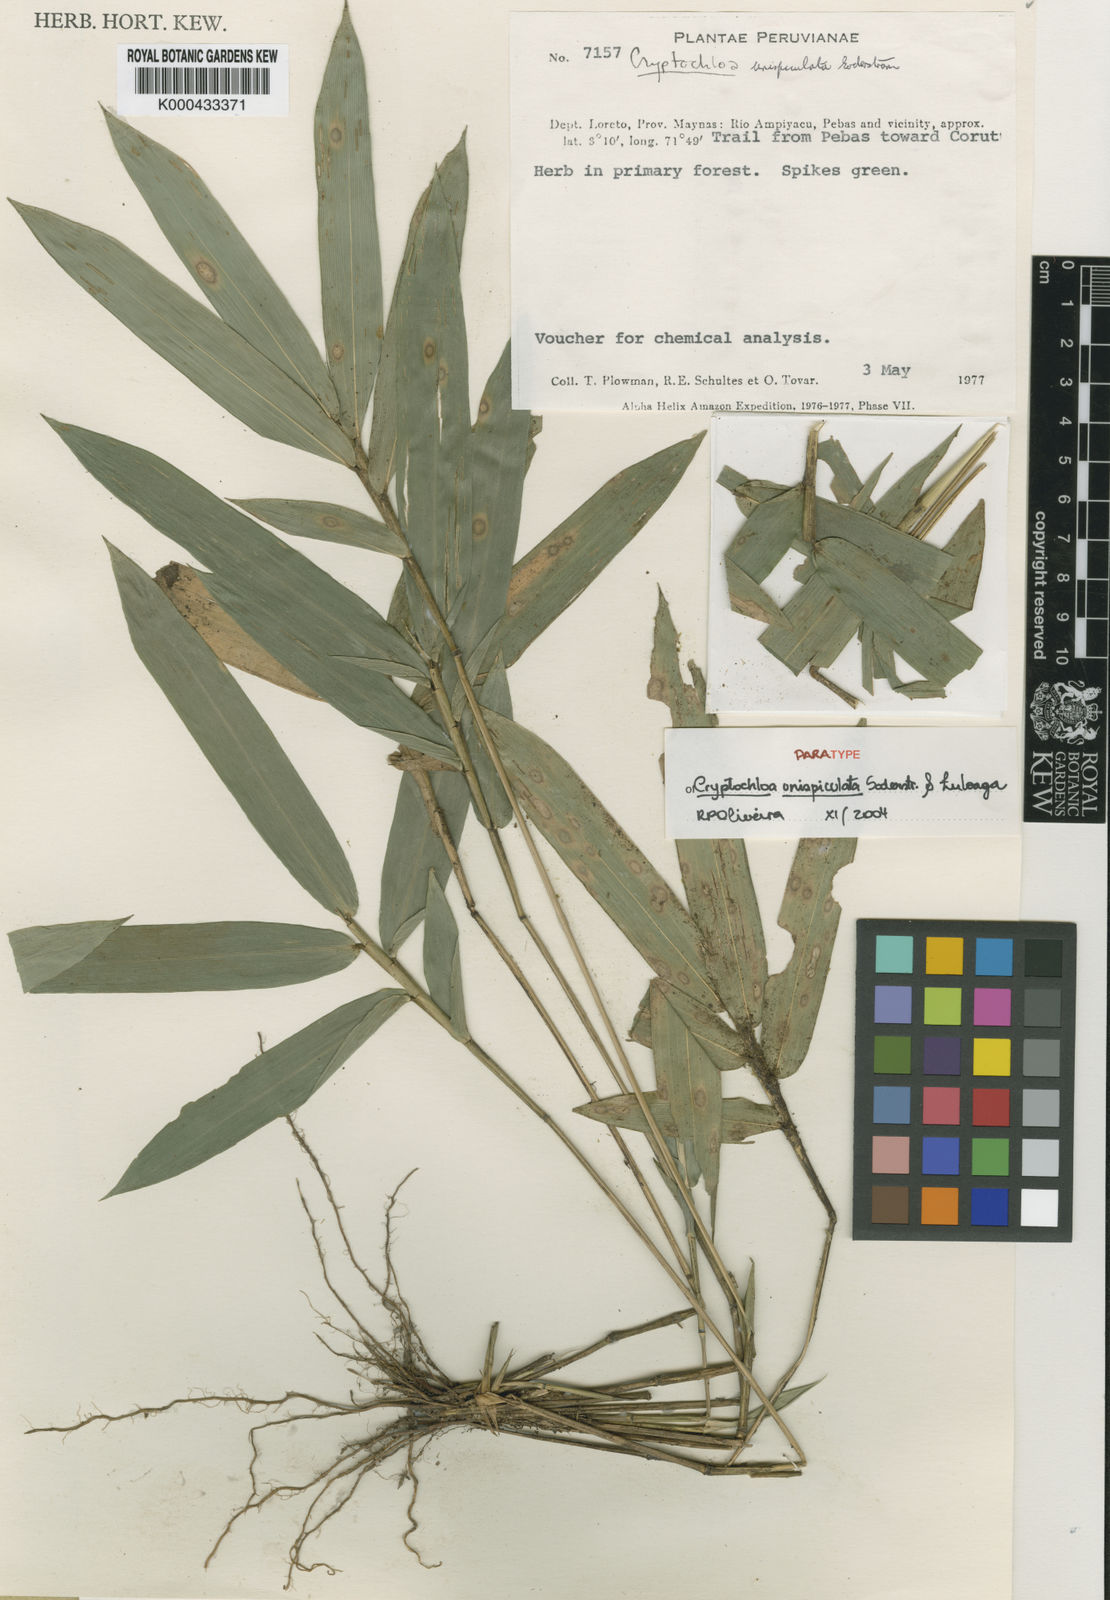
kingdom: Plantae
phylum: Tracheophyta
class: Liliopsida
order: Poales
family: Poaceae
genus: Cryptochloa
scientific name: Cryptochloa unispiculata
